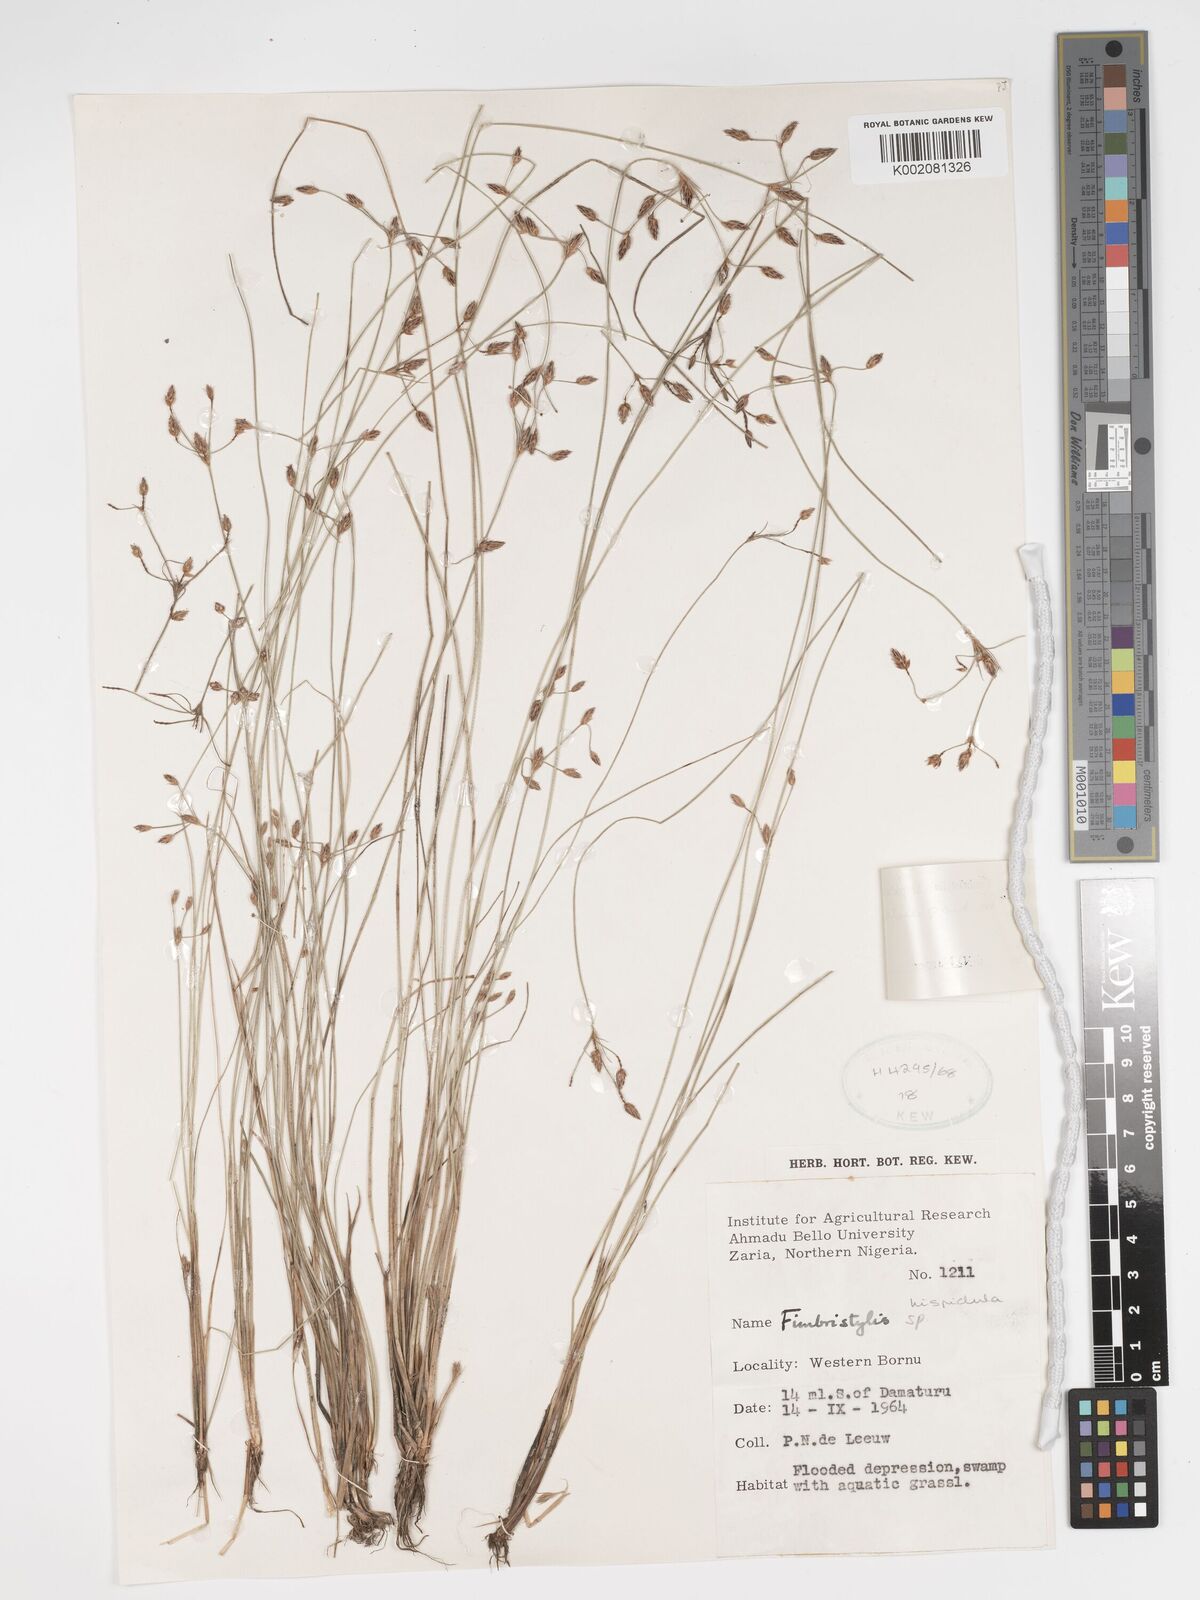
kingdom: Plantae
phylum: Tracheophyta
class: Liliopsida
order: Poales
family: Cyperaceae
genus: Bulbostylis
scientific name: Bulbostylis hispidula
